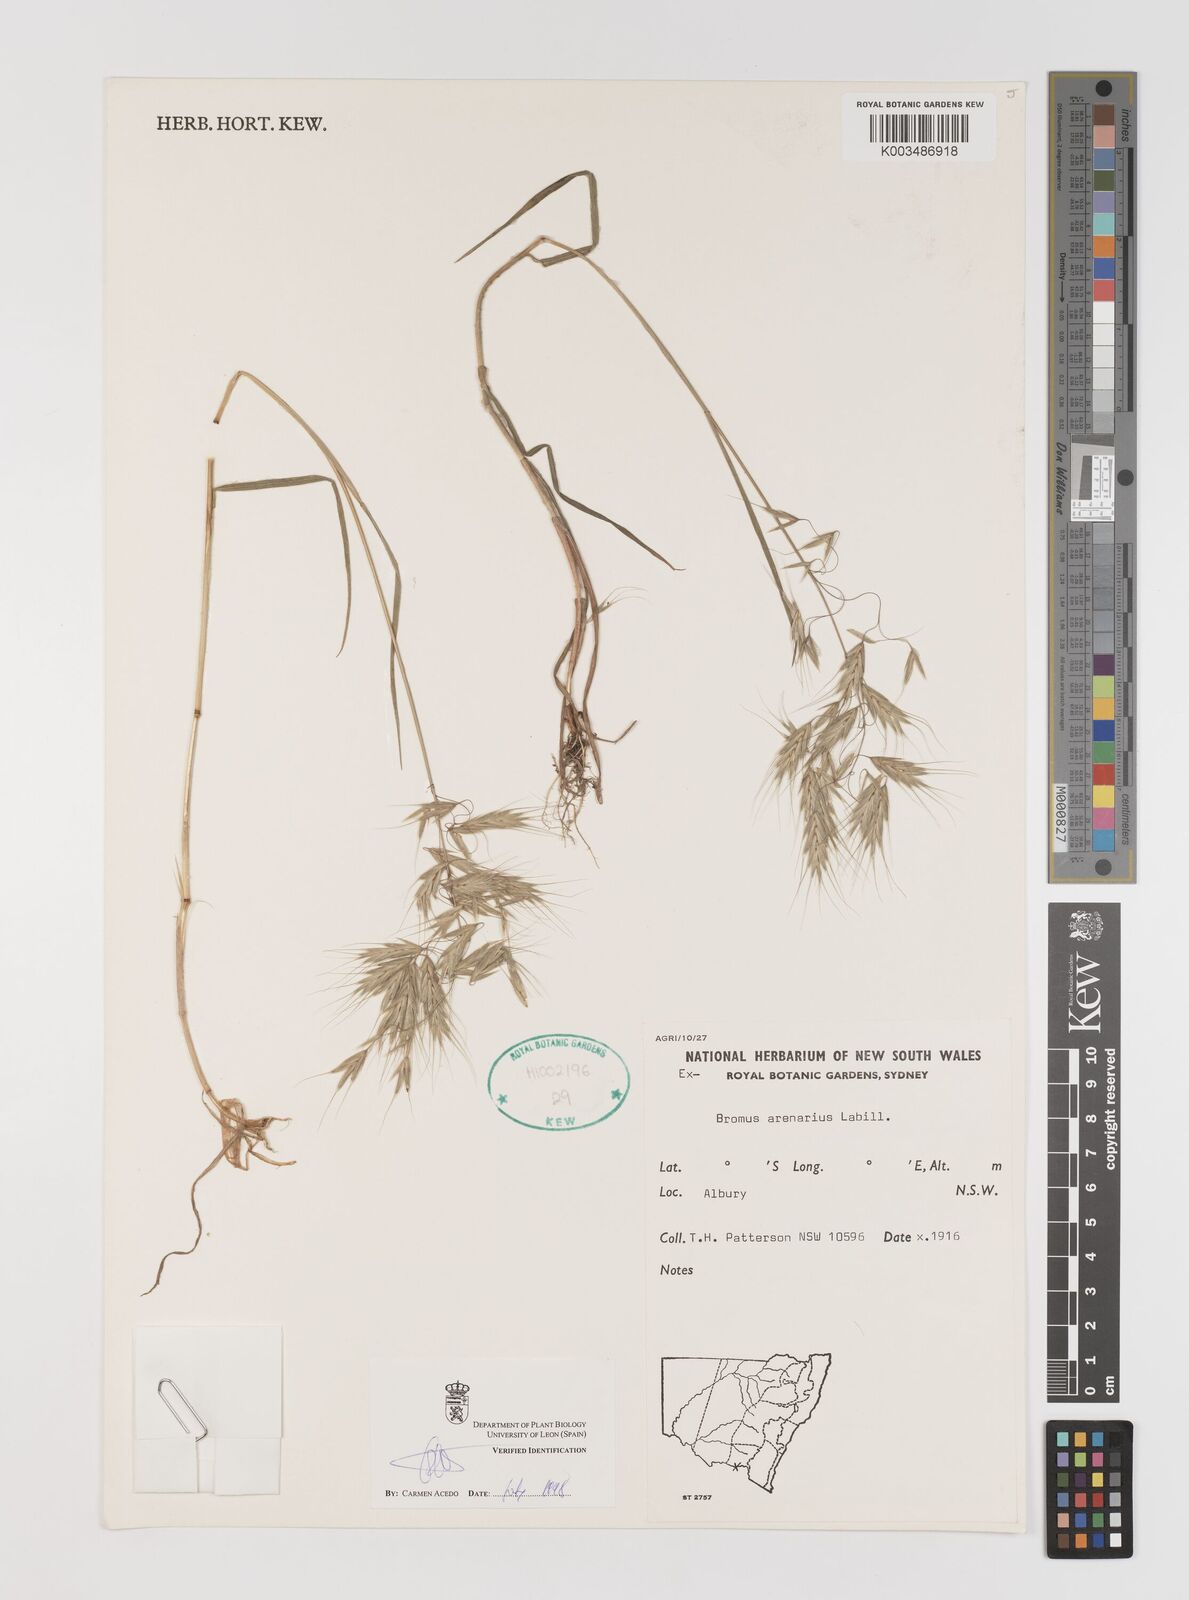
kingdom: Plantae
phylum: Tracheophyta
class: Liliopsida
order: Poales
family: Poaceae
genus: Bromus
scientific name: Bromus arenarius
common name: Australian brome
